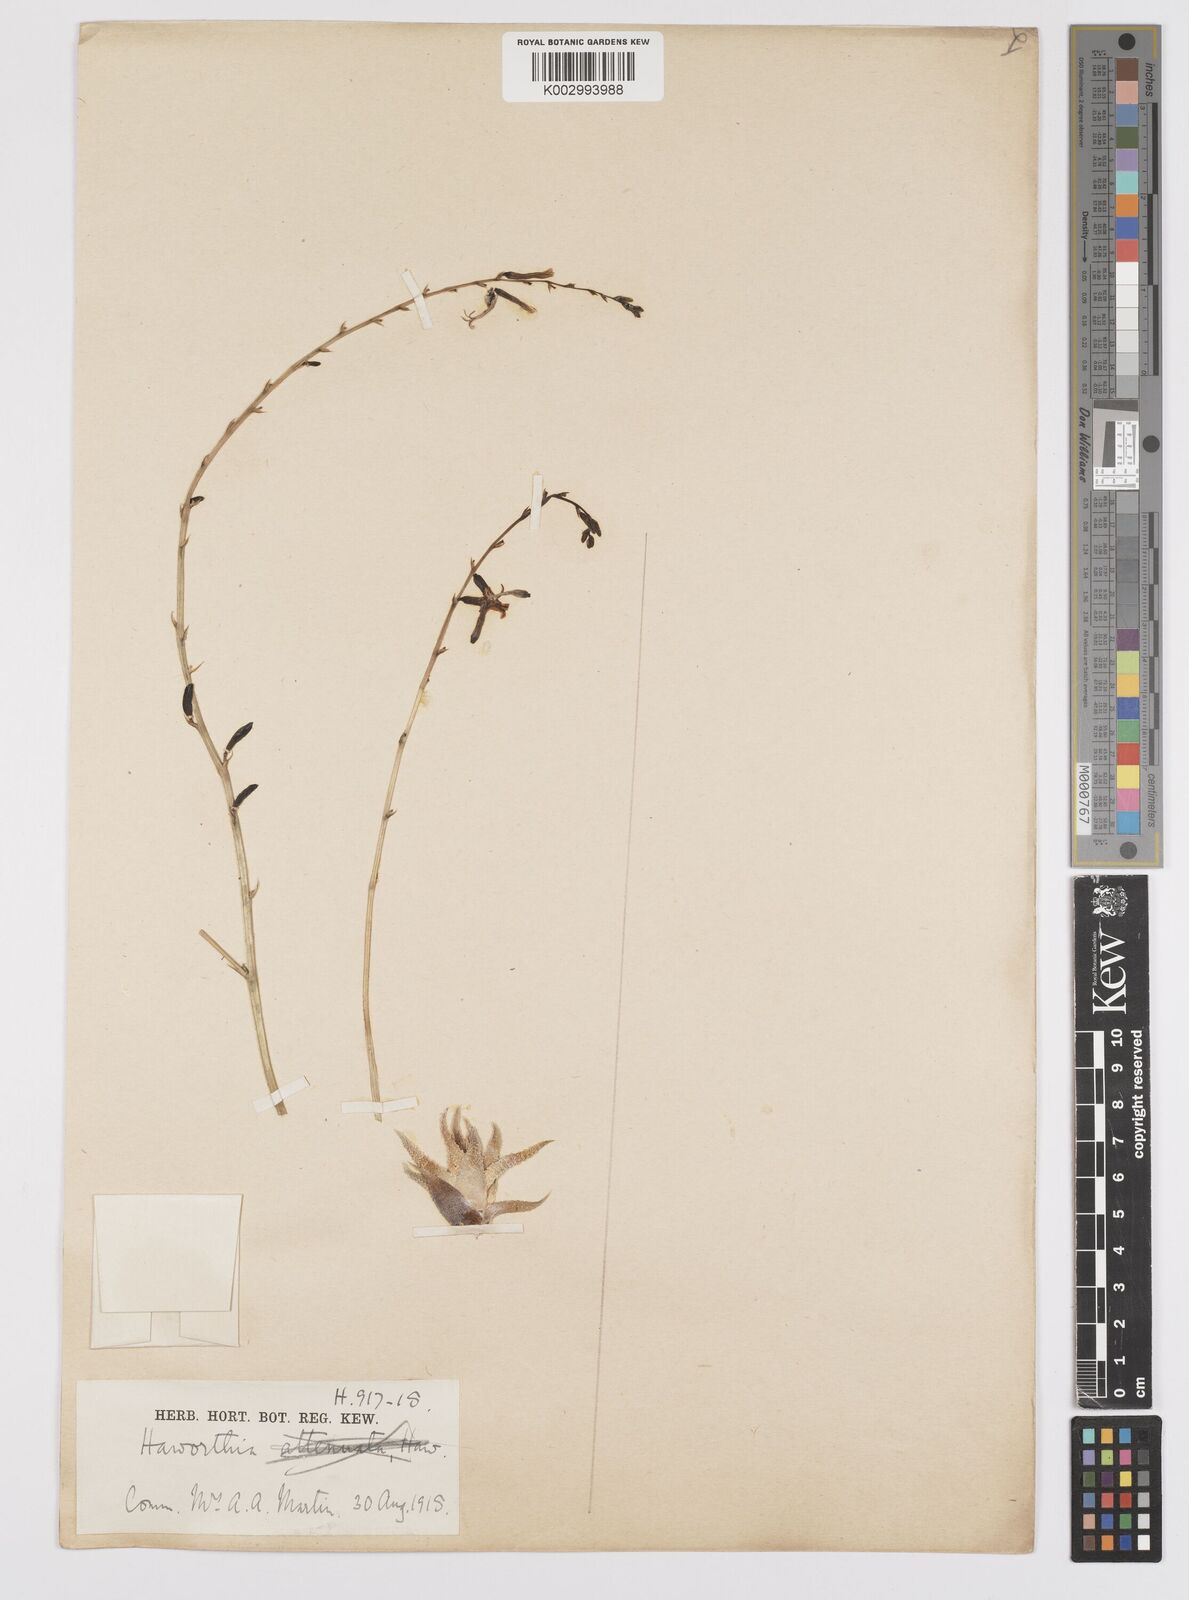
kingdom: Plantae
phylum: Tracheophyta
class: Liliopsida
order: Asparagales
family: Asphodelaceae
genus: Haworthia
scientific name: Haworthia
